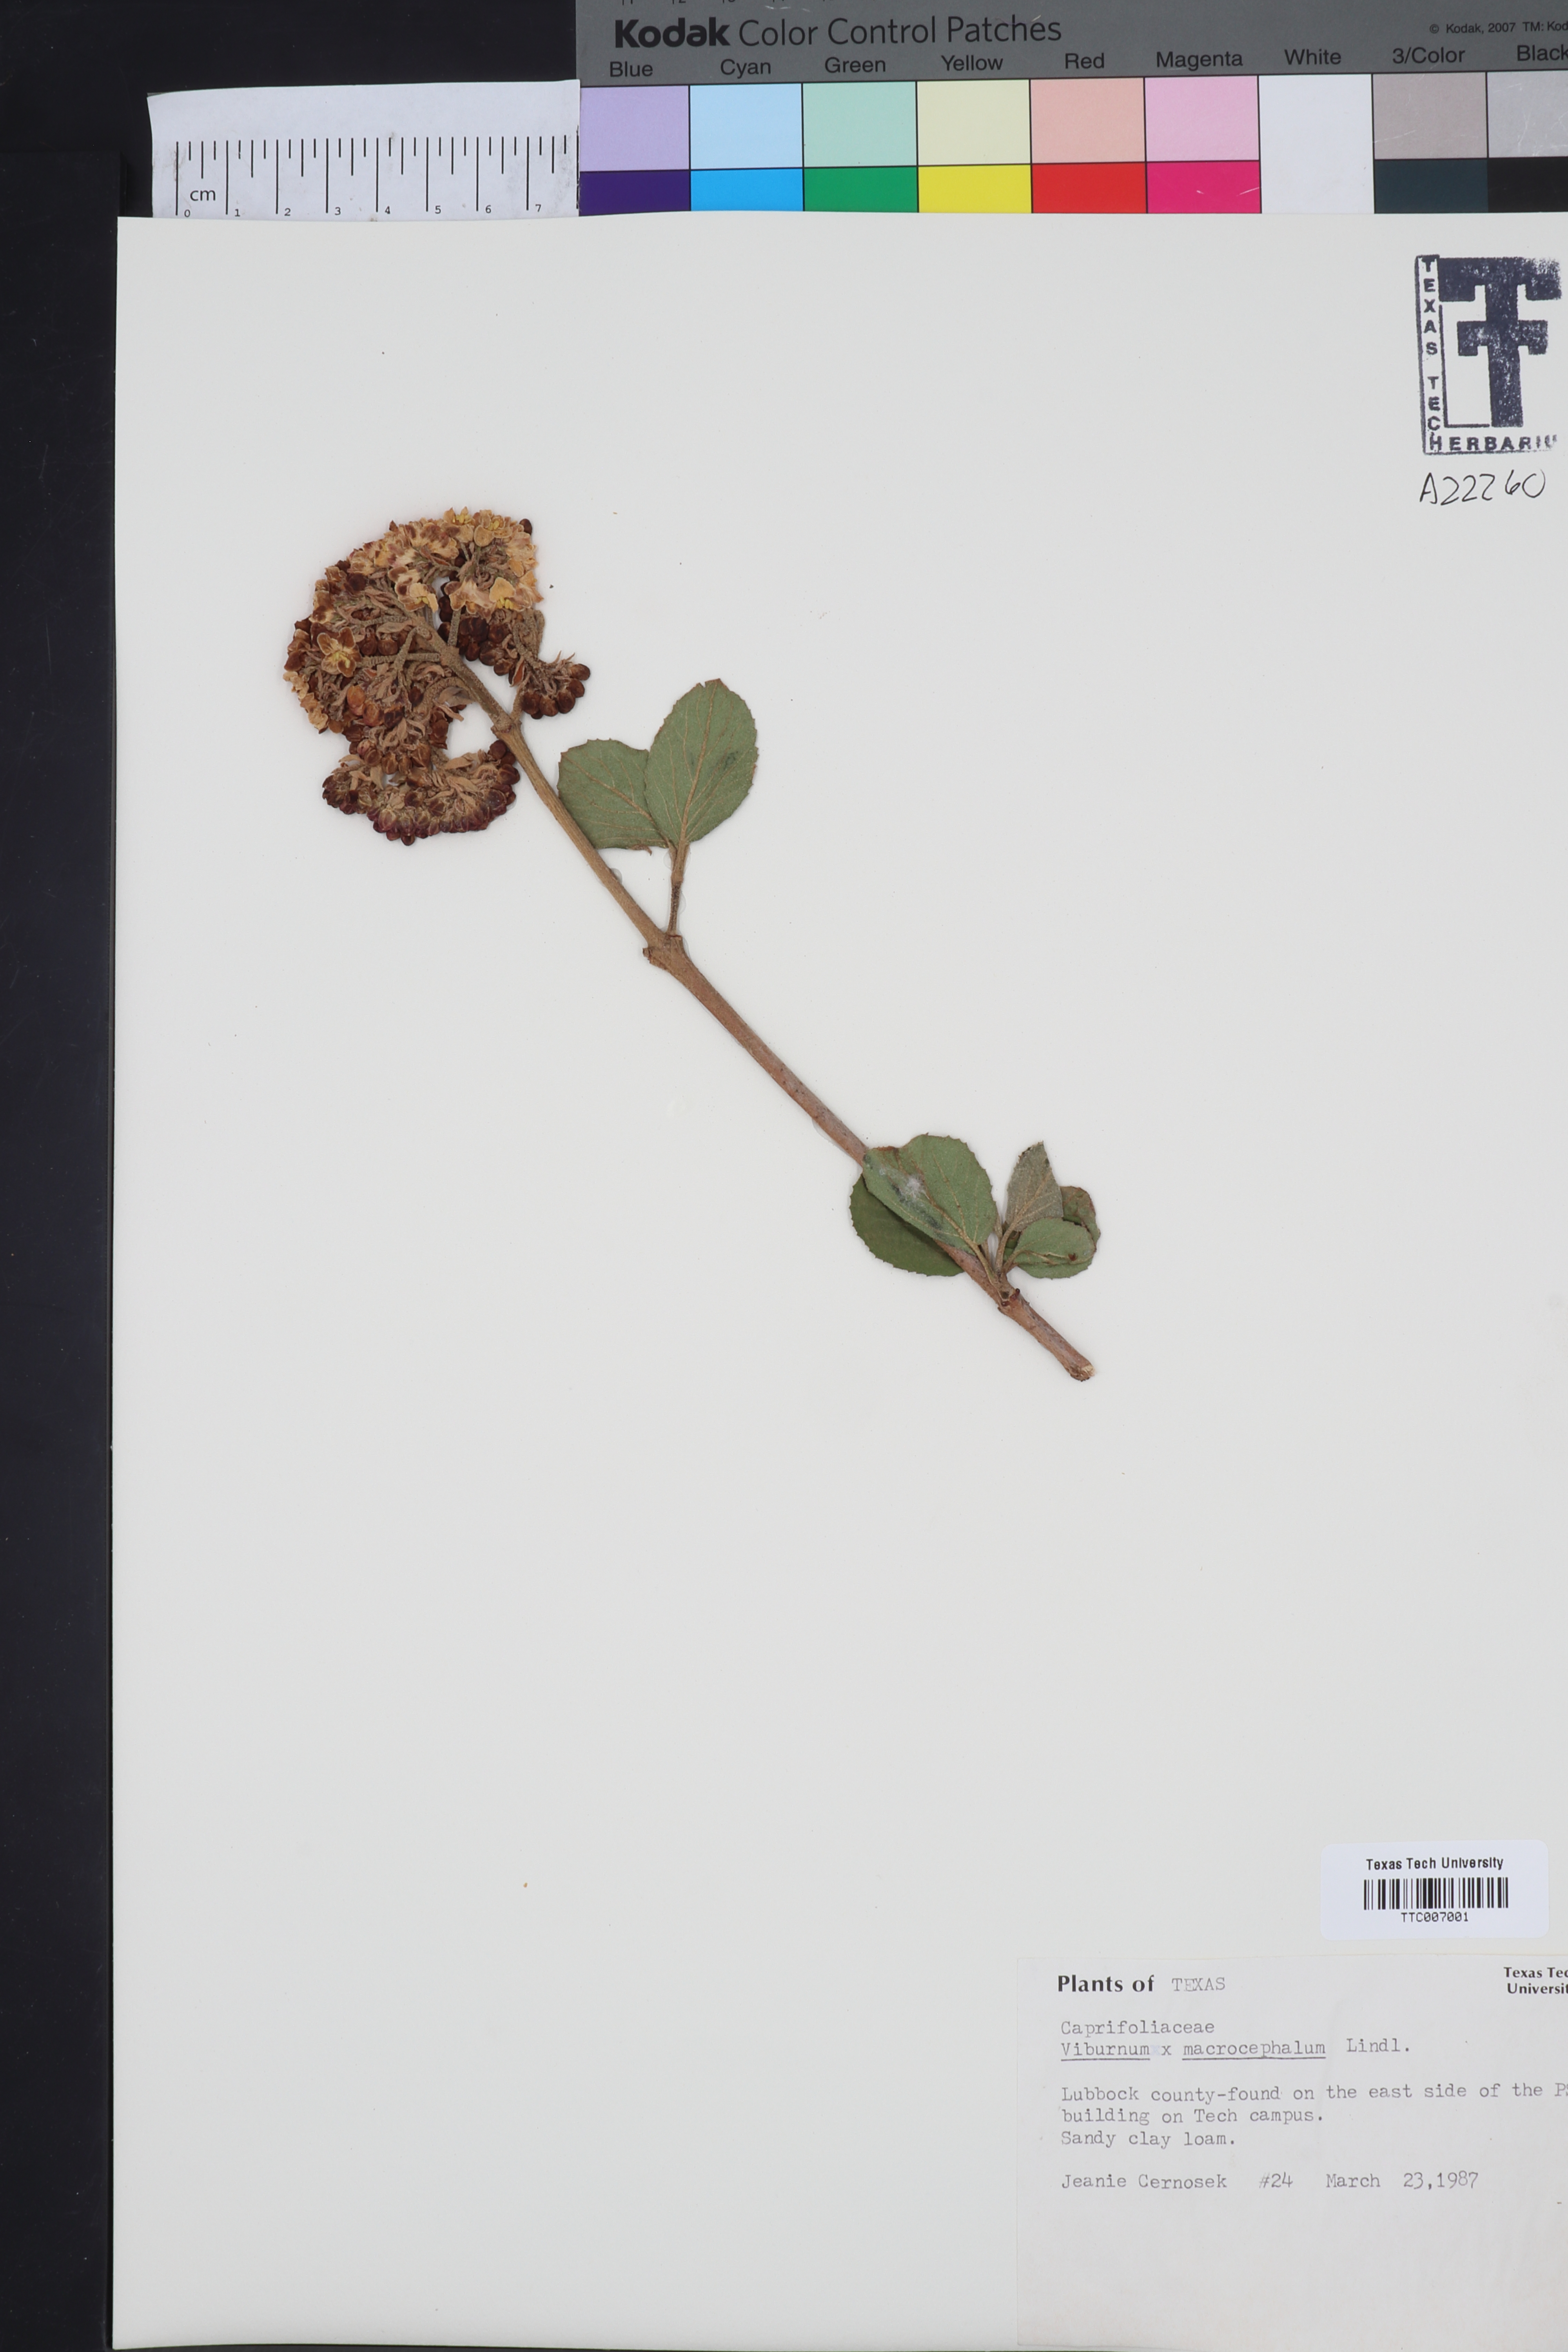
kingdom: Plantae
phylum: Tracheophyta
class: Magnoliopsida
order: Dipsacales
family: Viburnaceae
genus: Viburnum
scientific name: Viburnum macrocephalum
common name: Chinese snowball viburnum
